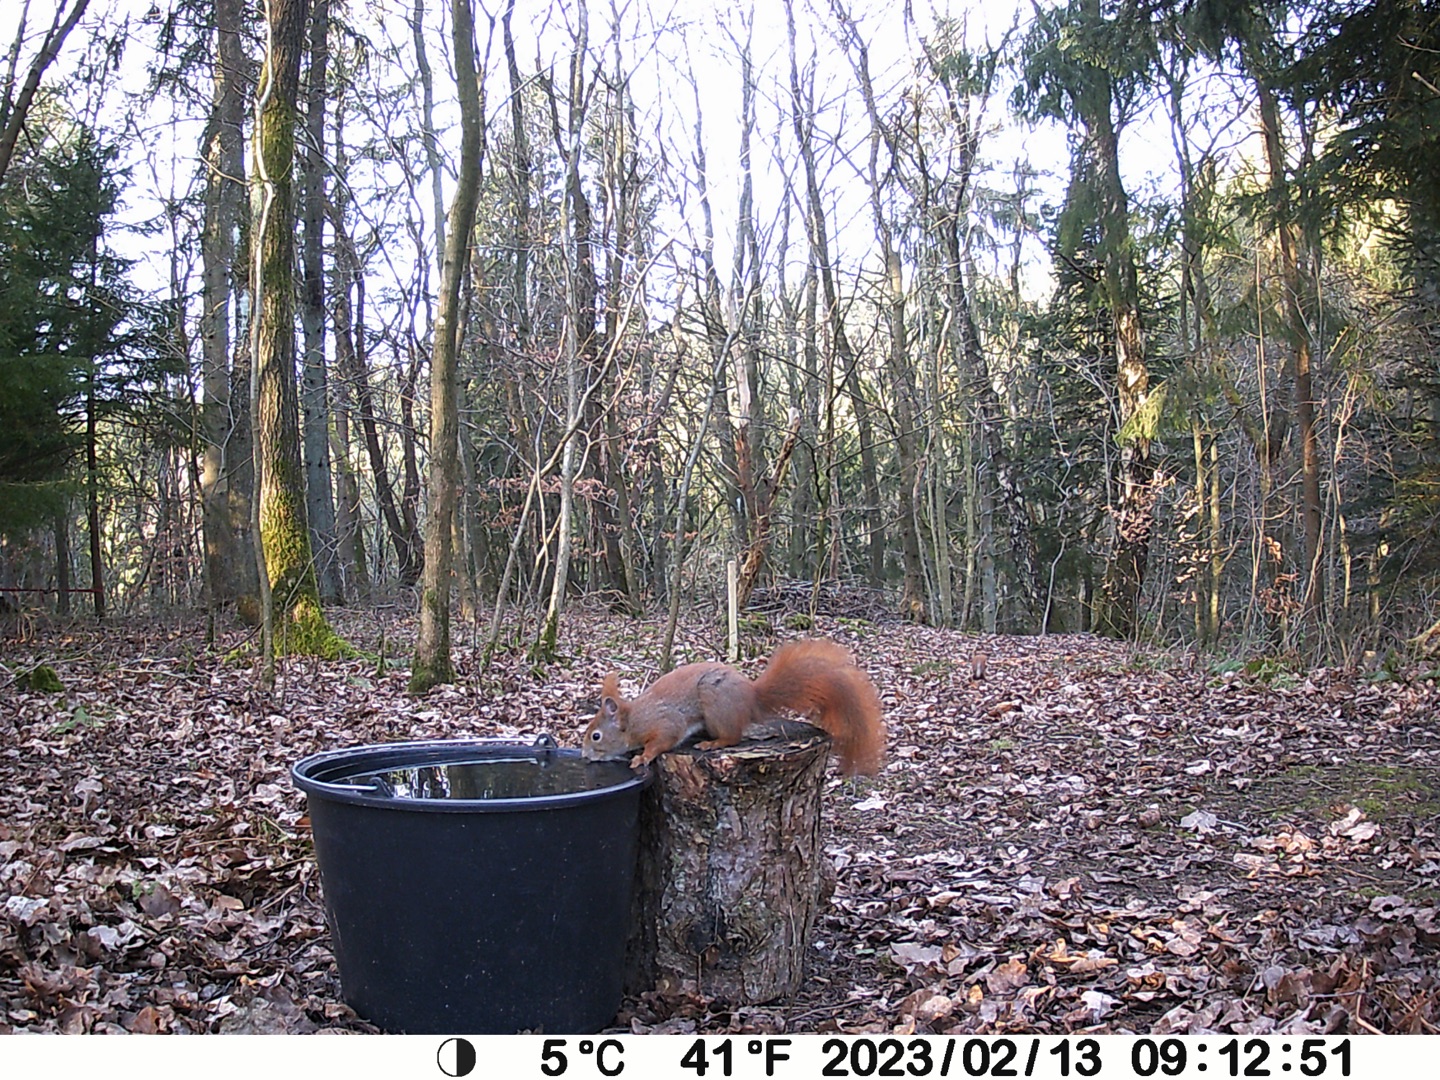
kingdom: Animalia
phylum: Chordata
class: Mammalia
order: Rodentia
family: Sciuridae
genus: Sciurus
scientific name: Sciurus vulgaris
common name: Egern
